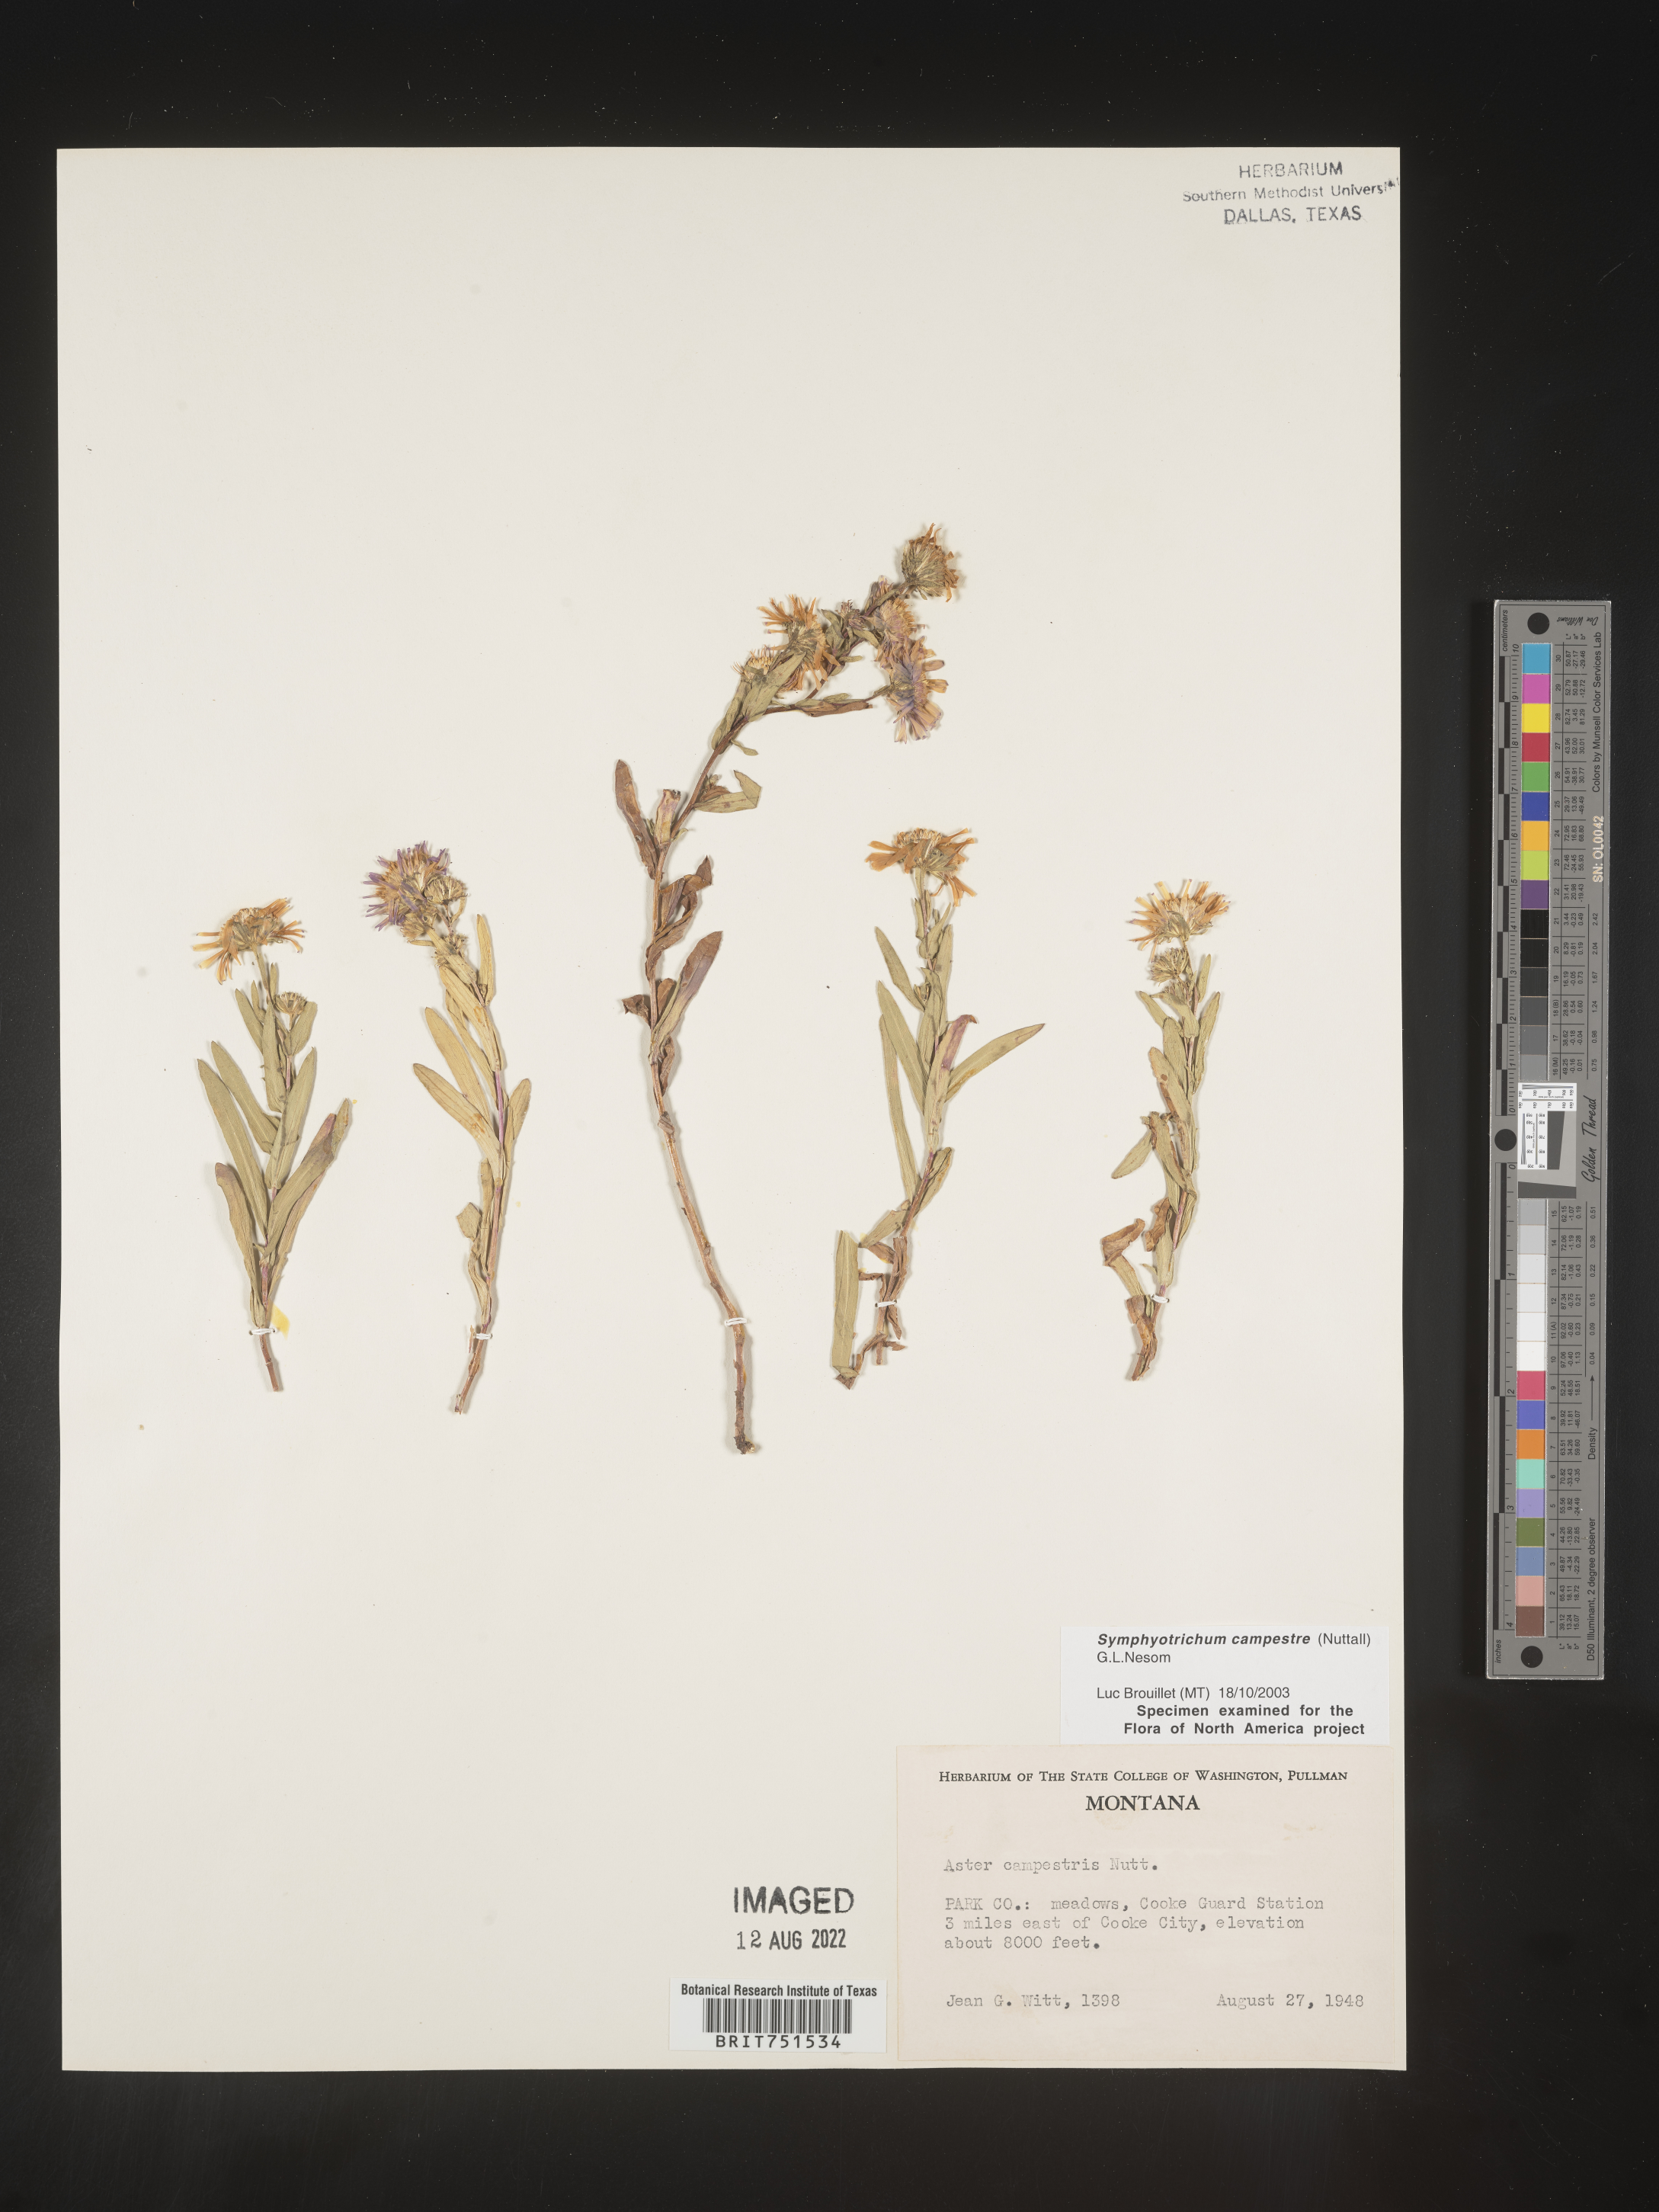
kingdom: Plantae
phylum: Tracheophyta
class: Magnoliopsida
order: Asterales
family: Asteraceae
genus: Symphyotrichum
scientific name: Symphyotrichum campestre
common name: Meadow aster
